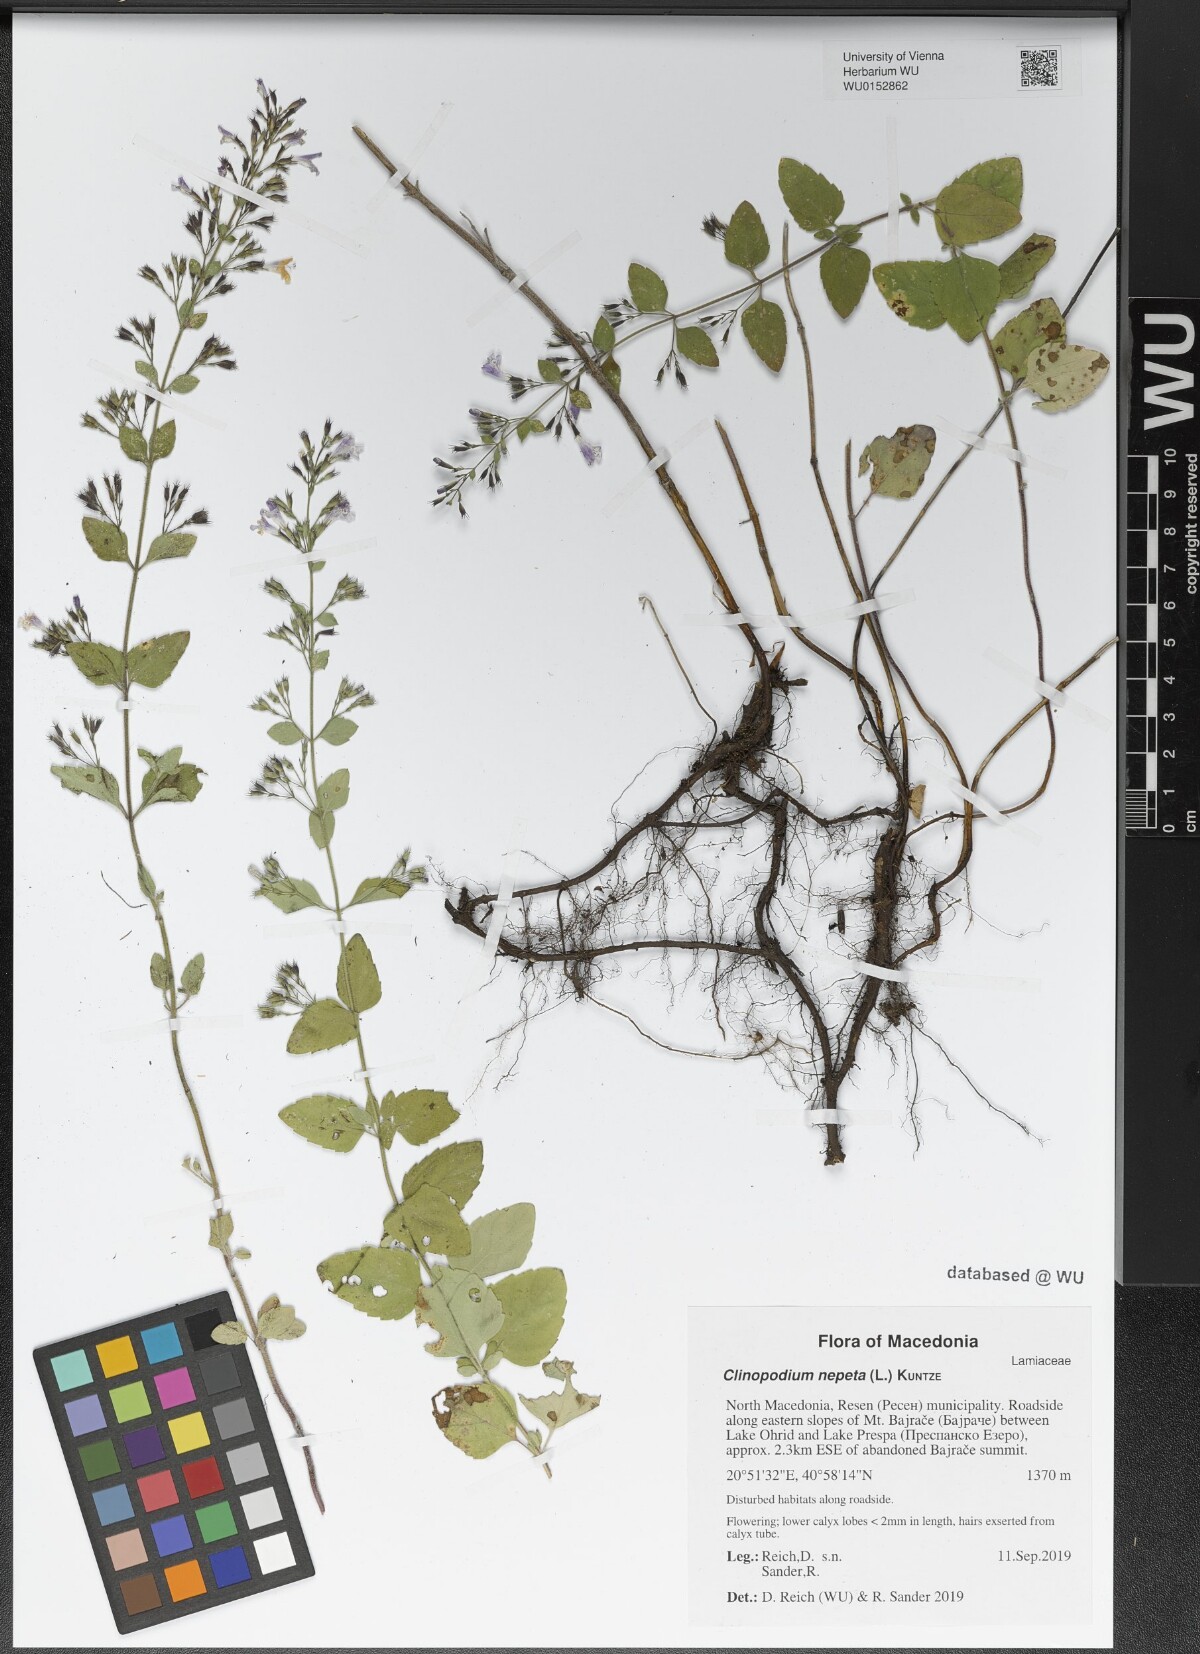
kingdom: Plantae
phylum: Tracheophyta
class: Magnoliopsida
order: Lamiales
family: Lamiaceae
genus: Clinopodium
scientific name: Clinopodium nepeta
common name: Lesser calamint
